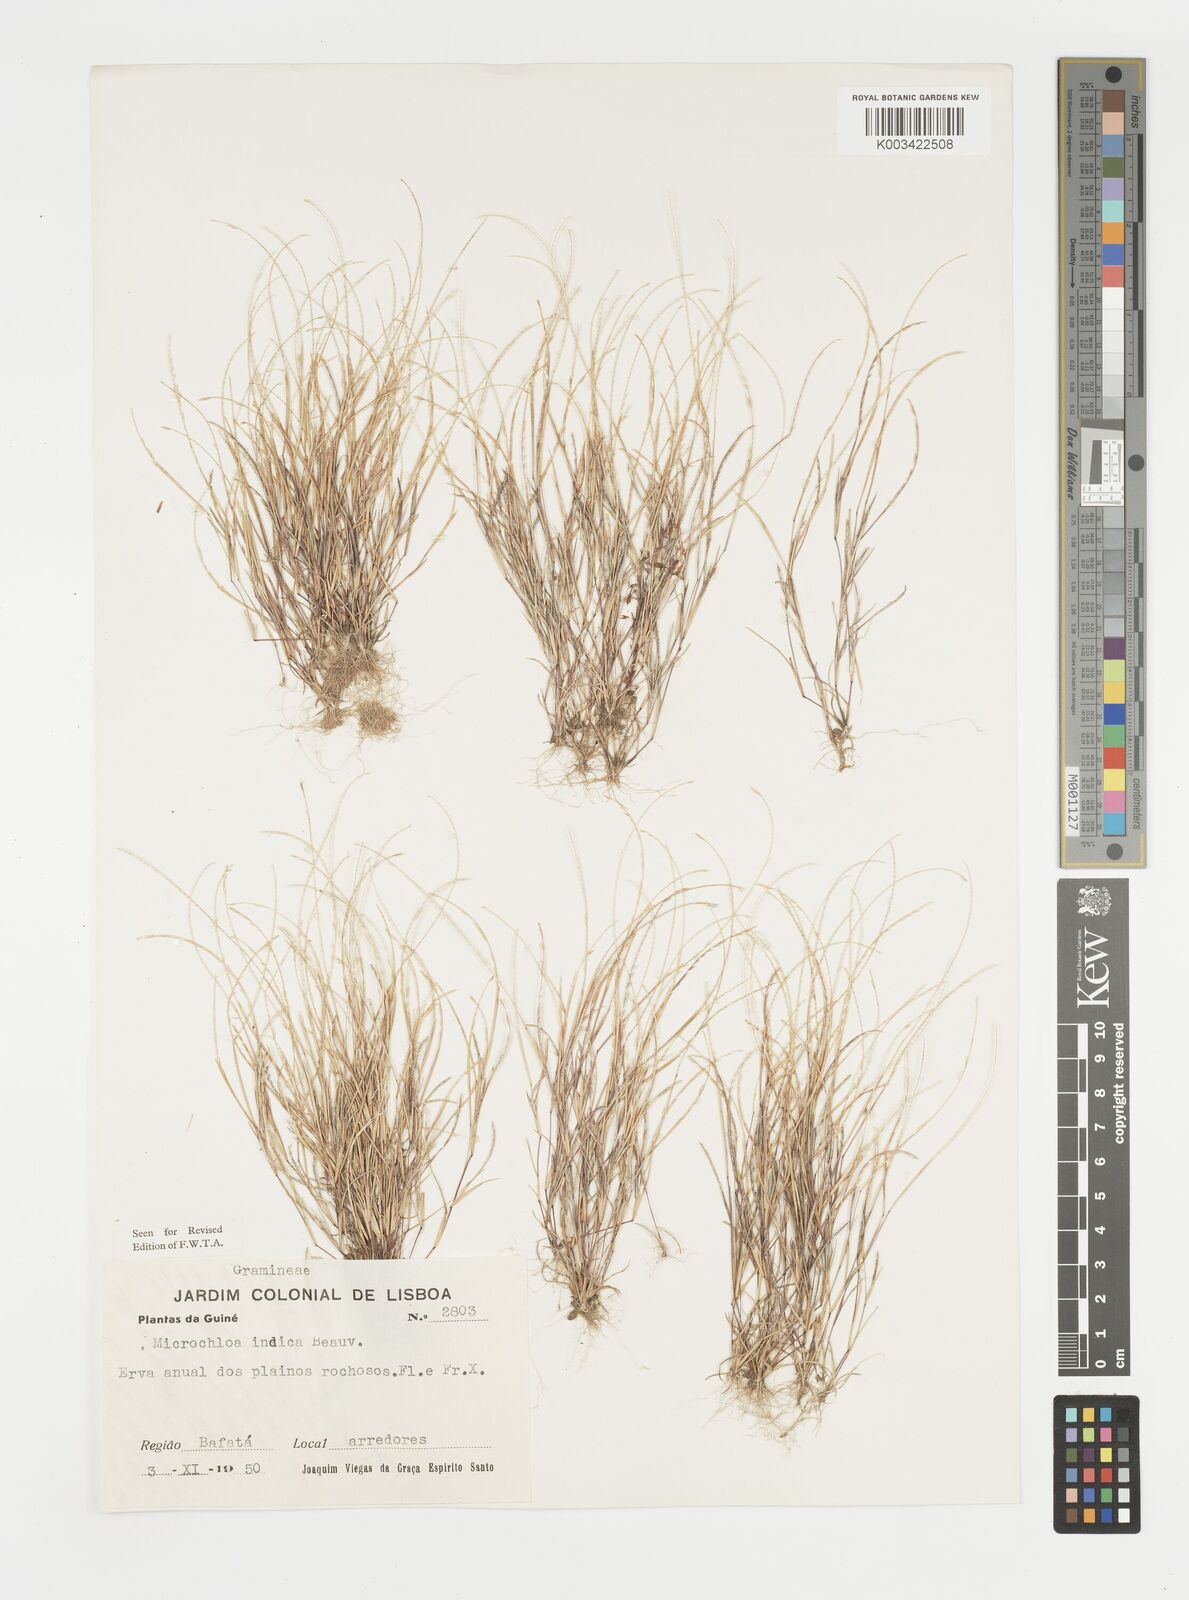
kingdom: Plantae
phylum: Tracheophyta
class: Liliopsida
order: Poales
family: Poaceae
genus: Microchloa
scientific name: Microchloa indica
